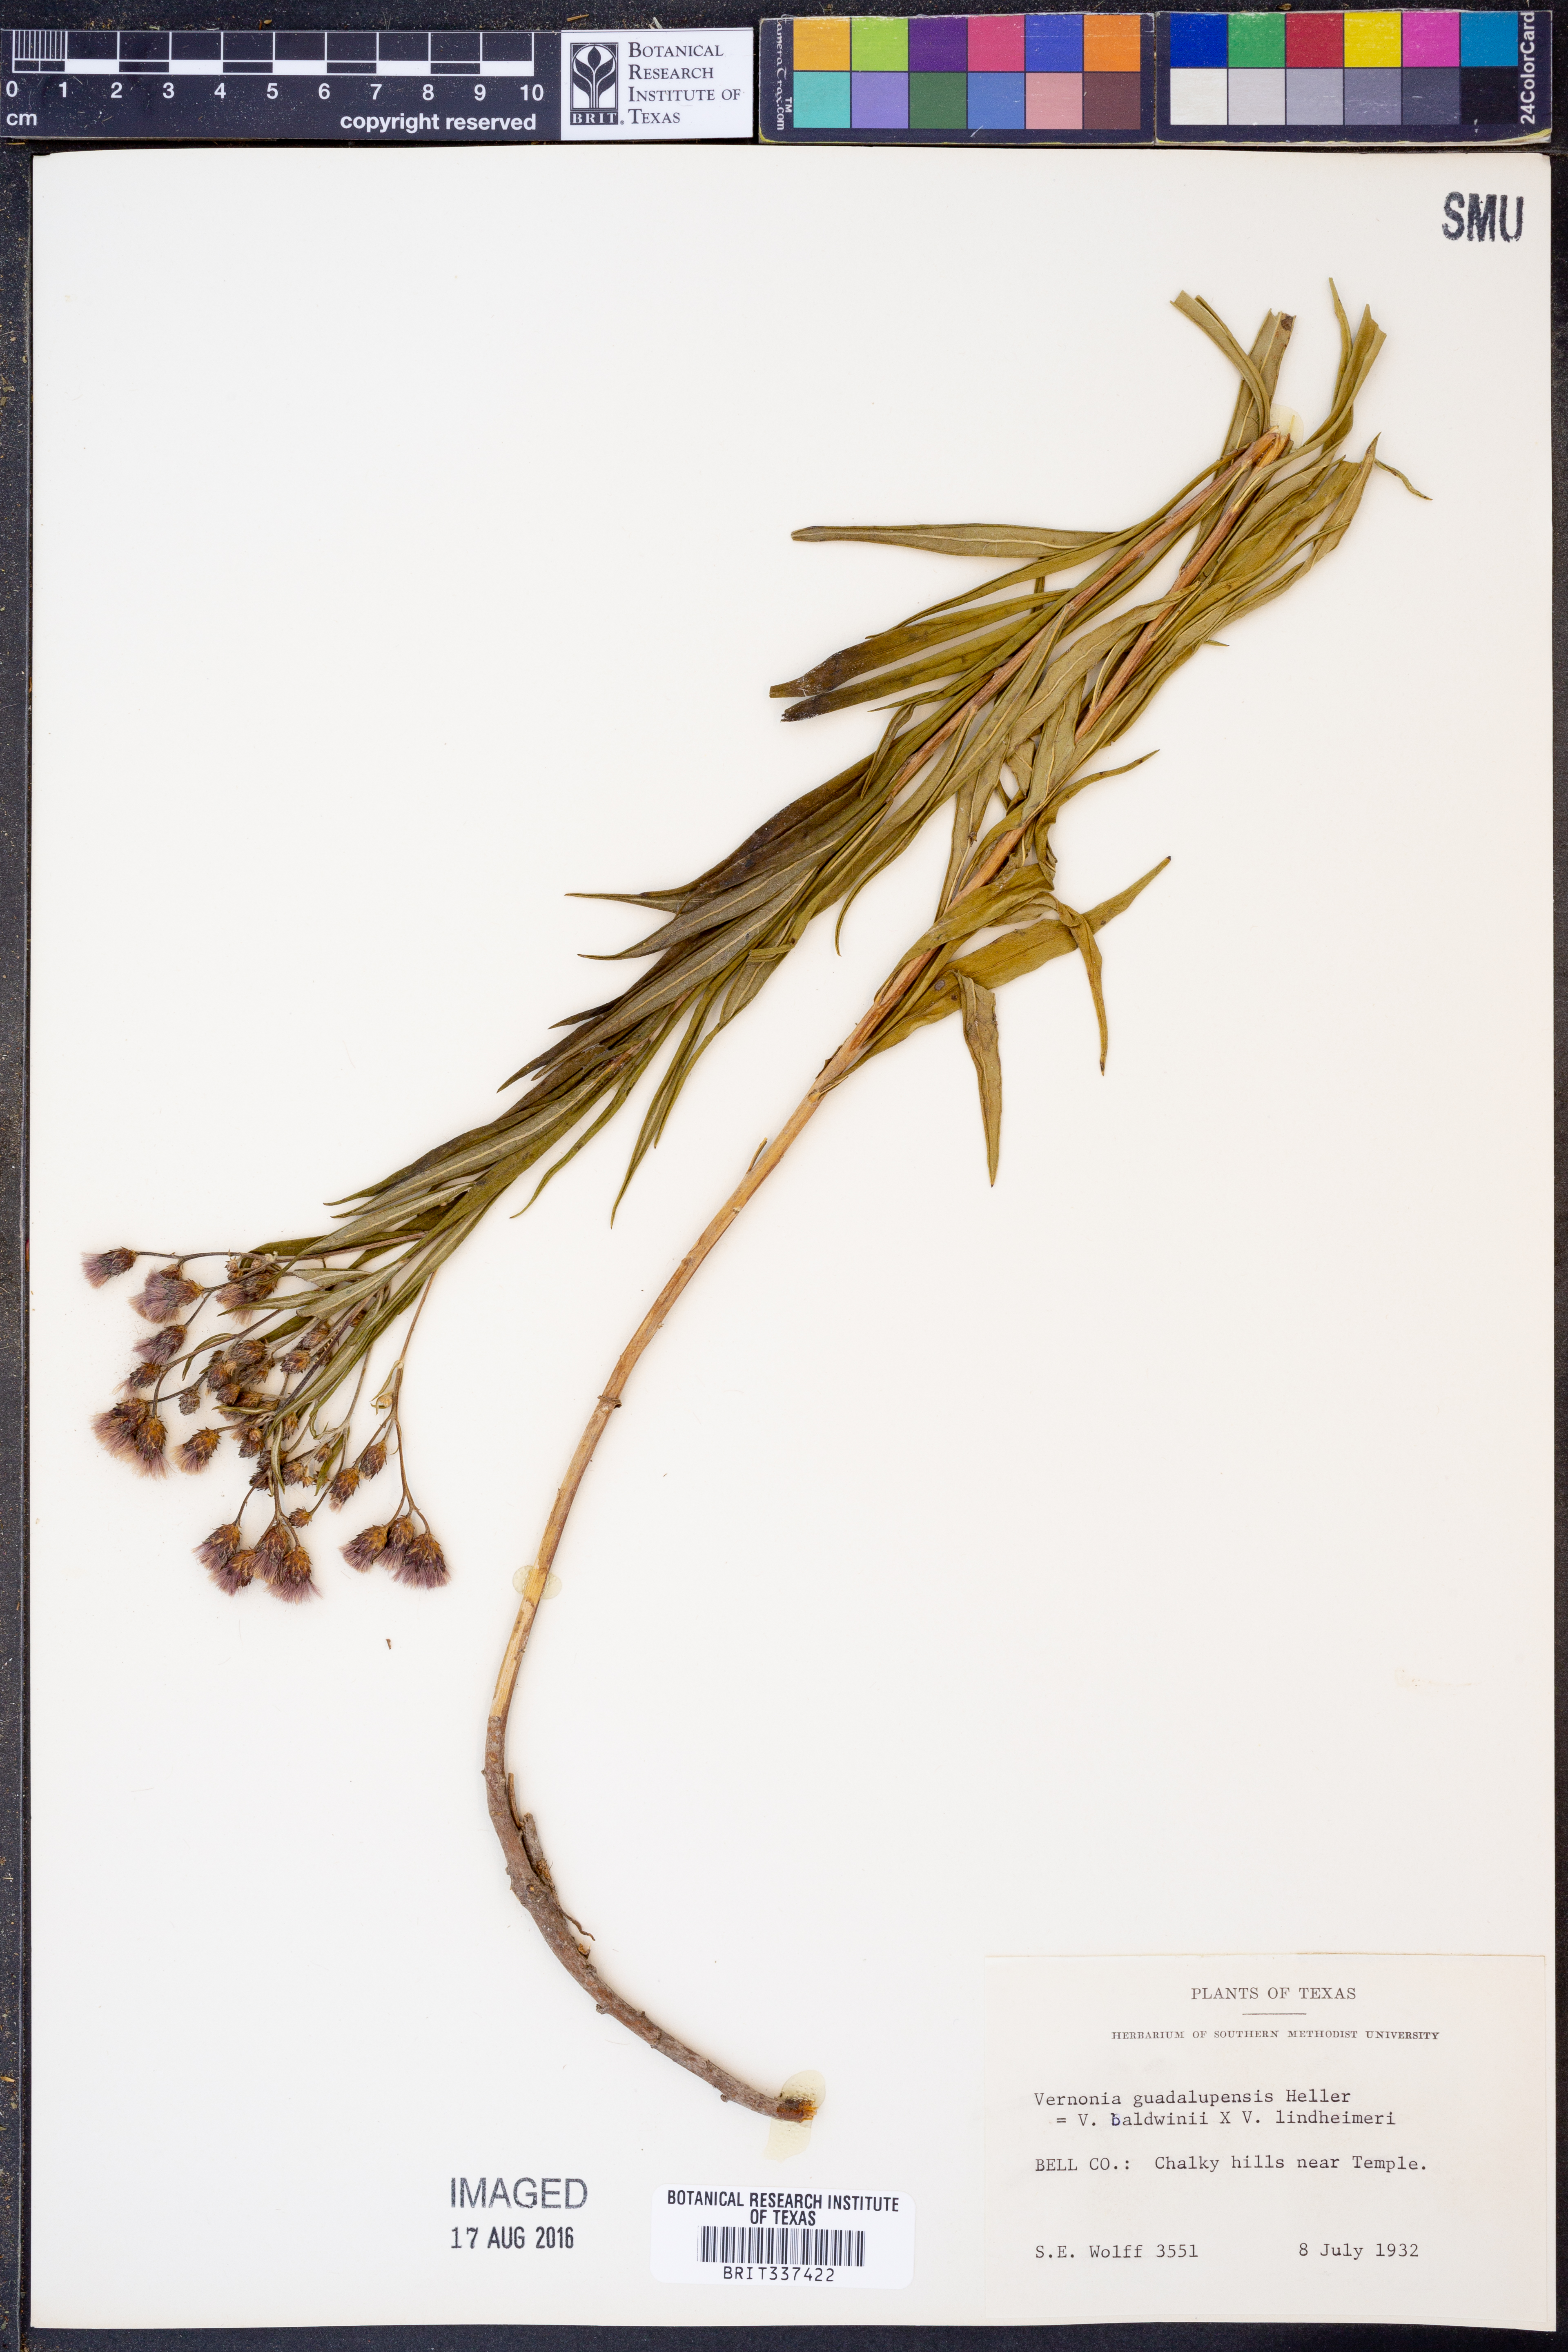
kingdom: Plantae
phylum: Tracheophyta
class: Magnoliopsida
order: Asterales
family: Asteraceae
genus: Vernonia
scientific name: Vernonia guadalupensis
